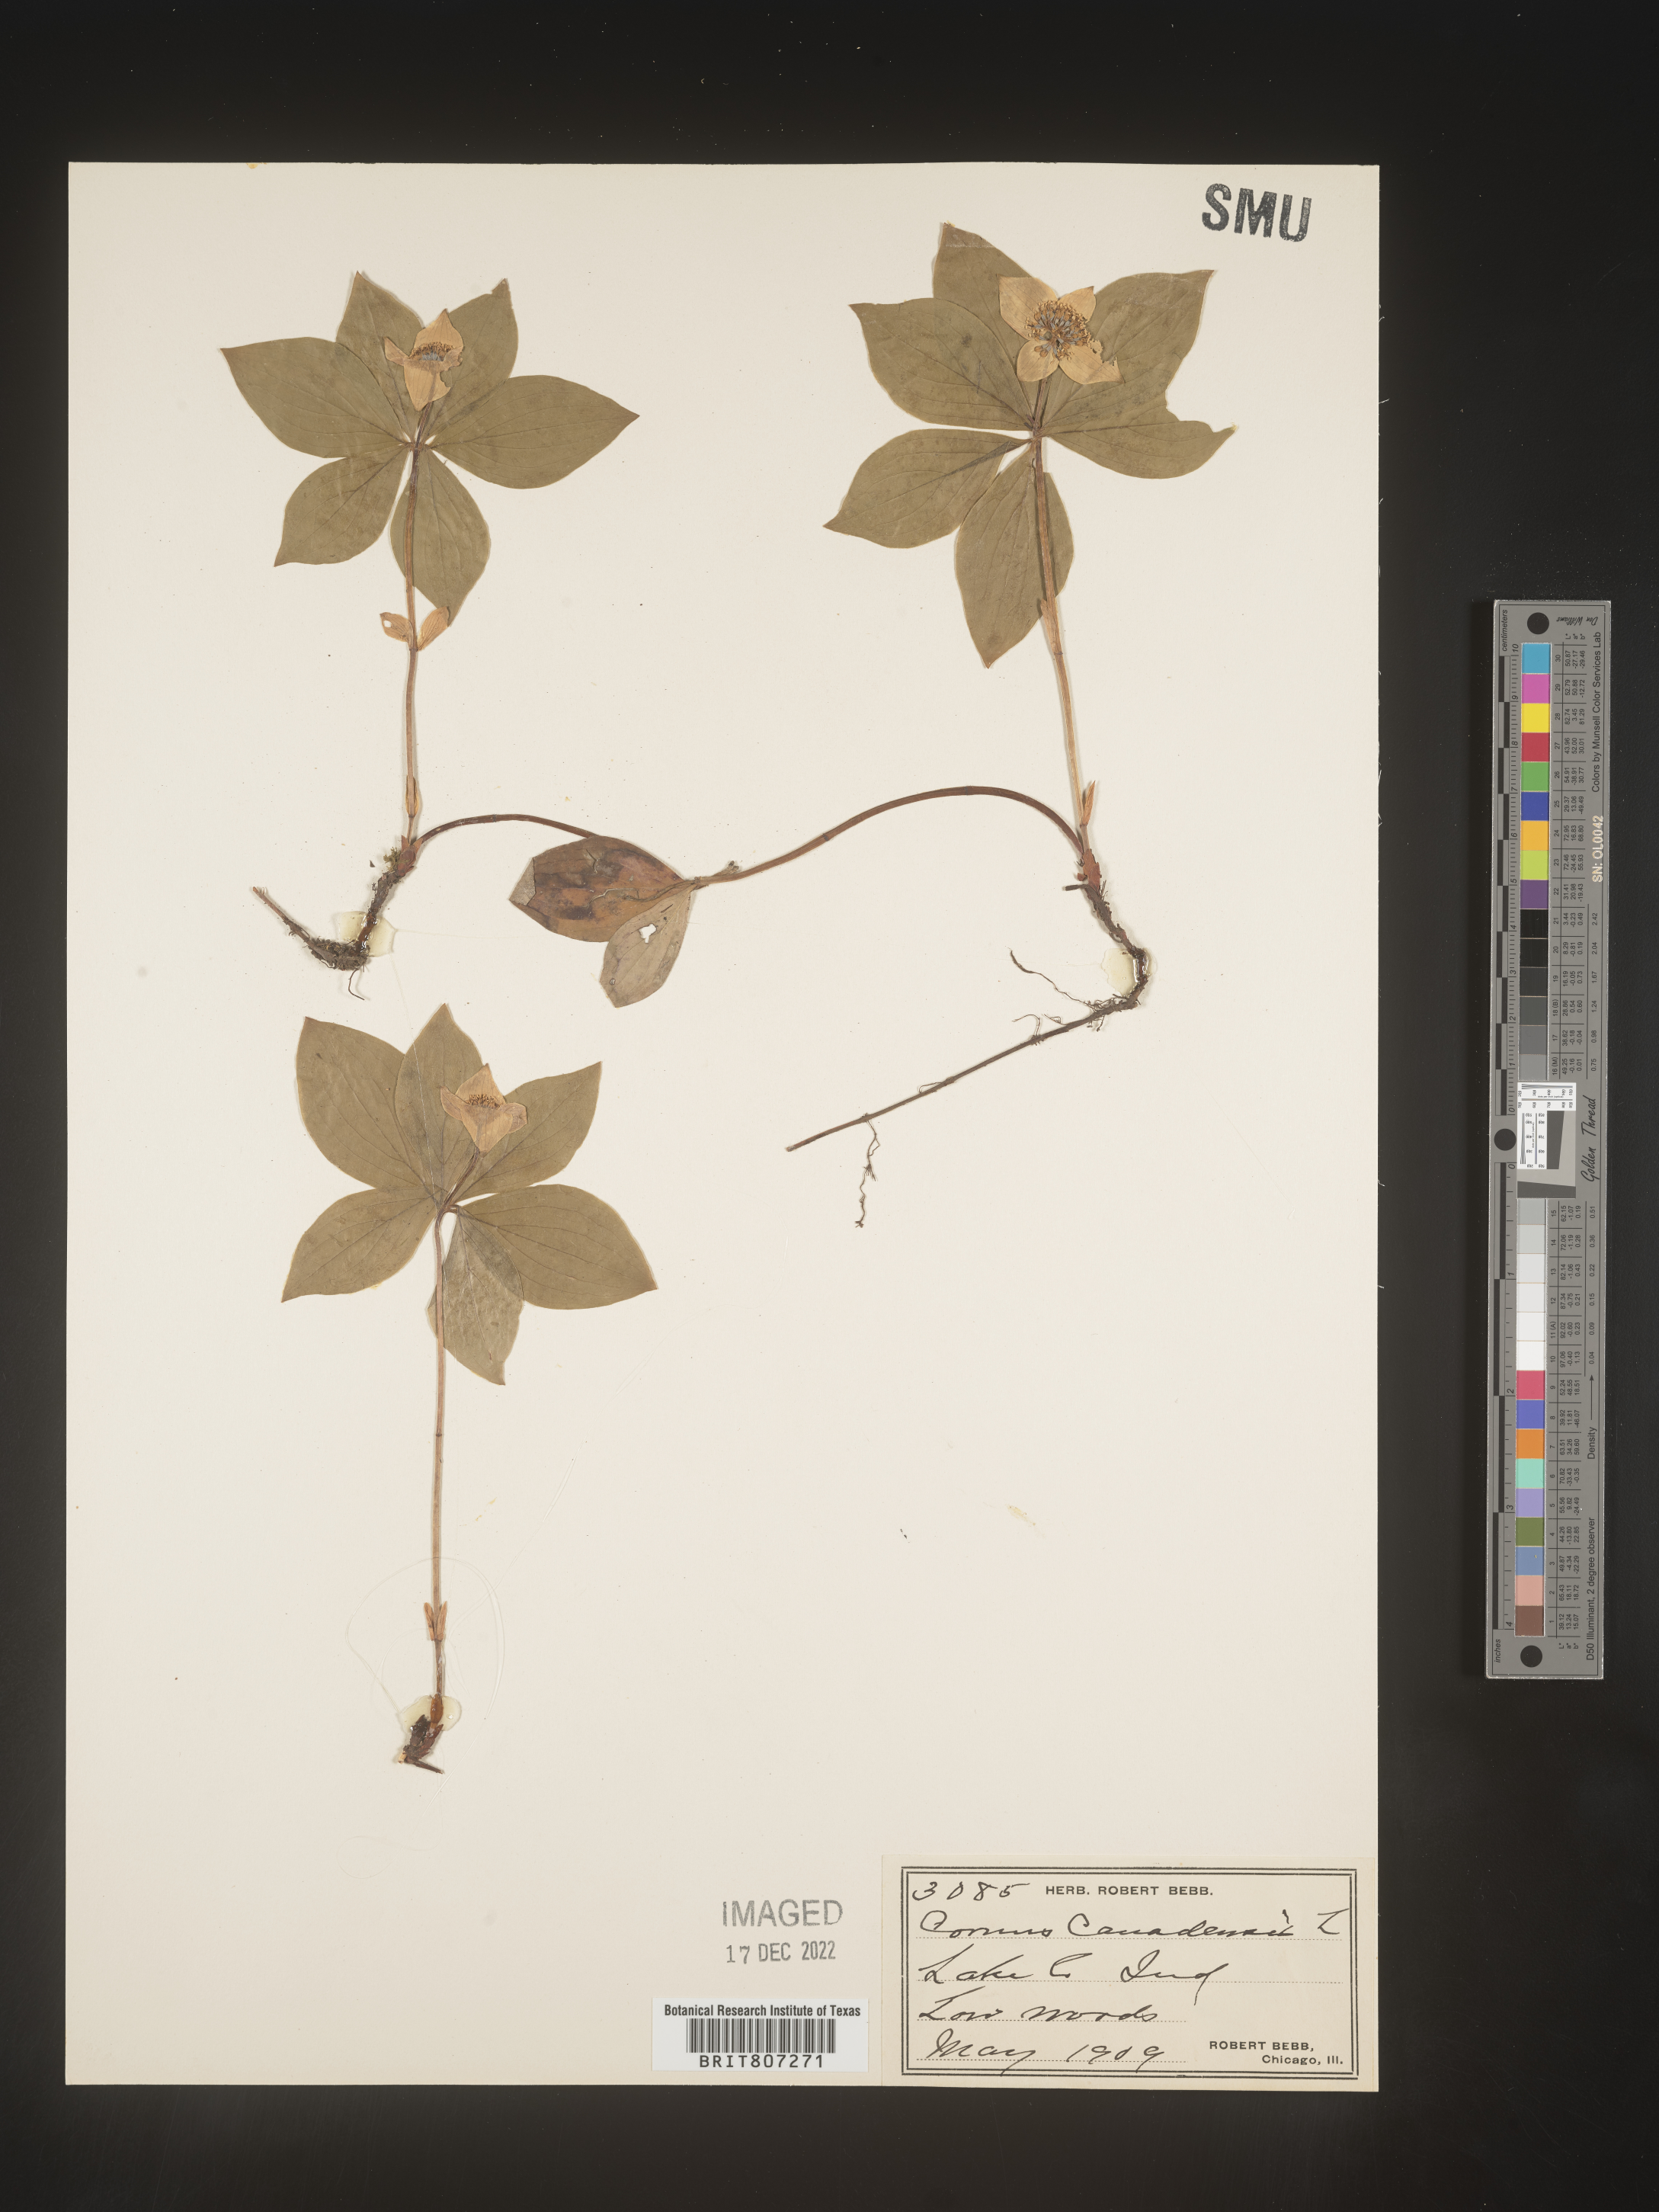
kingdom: Plantae
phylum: Tracheophyta
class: Magnoliopsida
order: Cornales
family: Cornaceae
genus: Cornus
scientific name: Cornus canadensis
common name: Creeping dogwood
